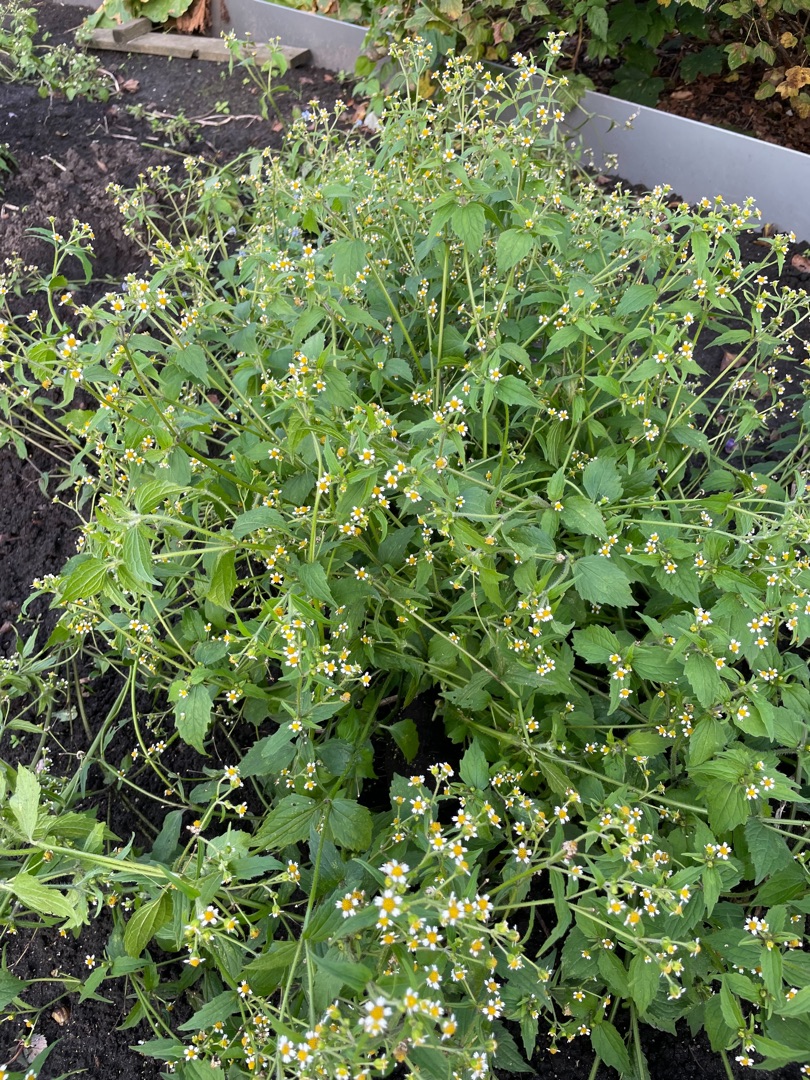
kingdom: Plantae
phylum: Tracheophyta
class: Magnoliopsida
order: Asterales
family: Asteraceae
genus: Galinsoga
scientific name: Galinsoga quadriradiata
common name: Kirtel-kortstråle
